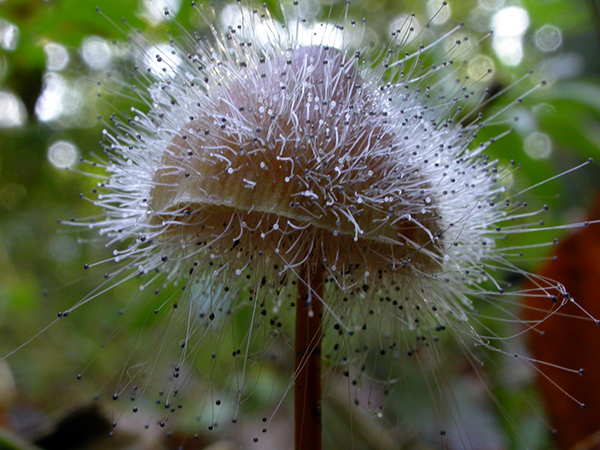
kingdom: Fungi
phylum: Mucoromycota
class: Mucoromycetes
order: Mucorales
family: Phycomycetaceae
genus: Spinellus
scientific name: Spinellus fusiger
